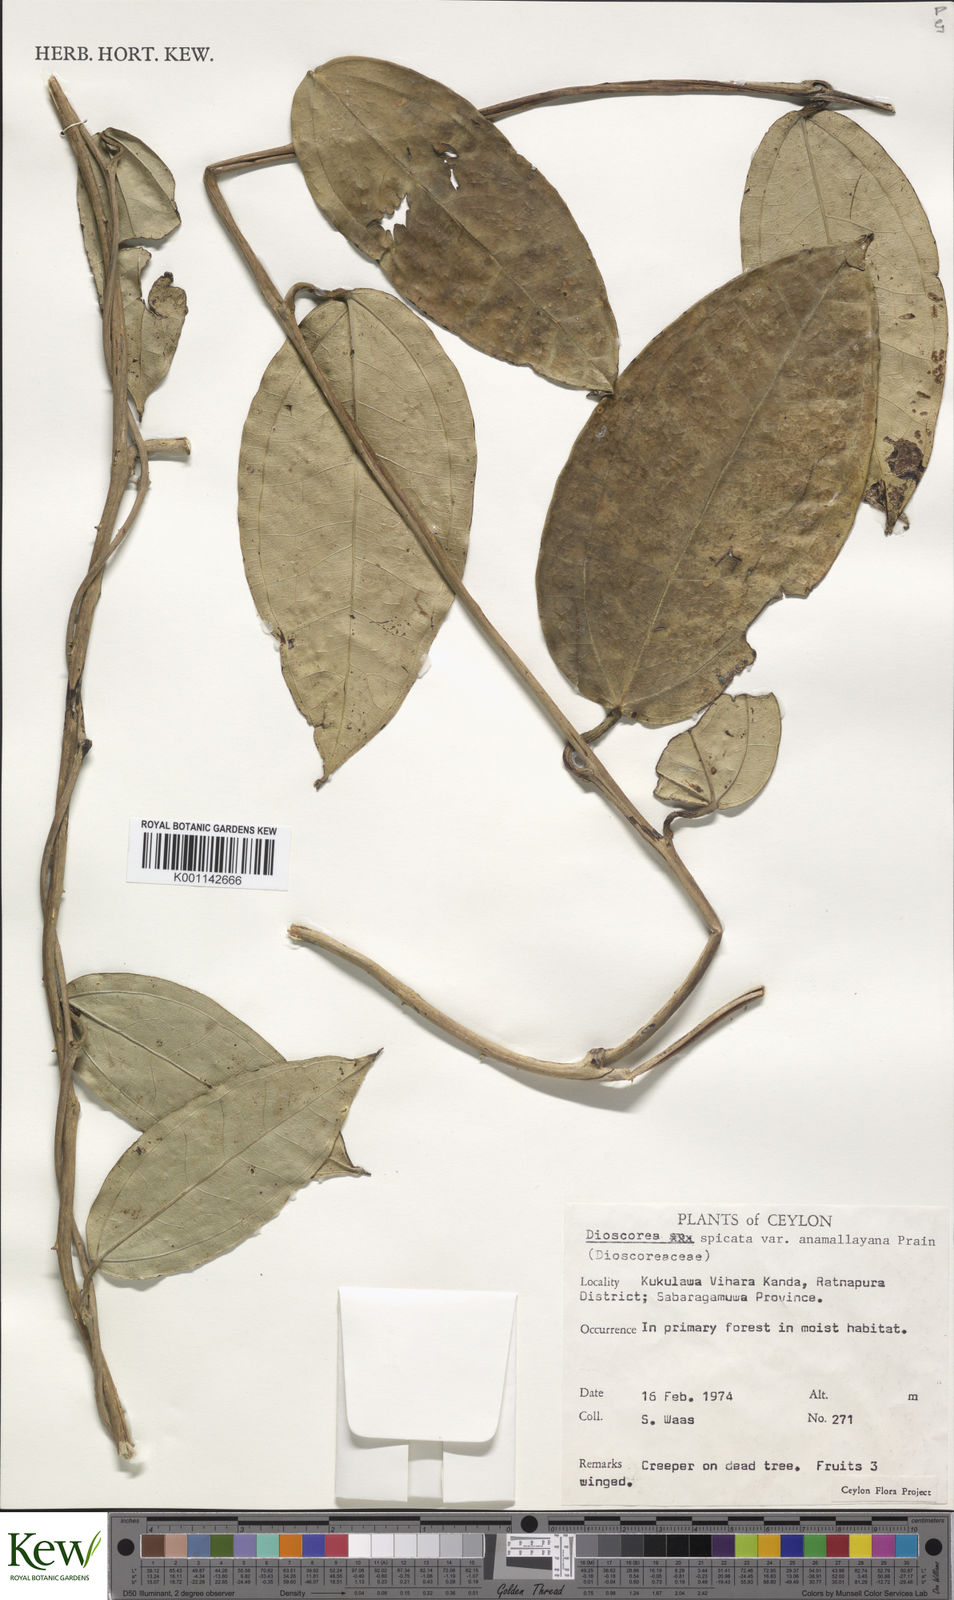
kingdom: Plantae
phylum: Tracheophyta
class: Liliopsida
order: Dioscoreales
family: Dioscoreaceae
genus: Dioscorea
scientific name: Dioscorea spicata
